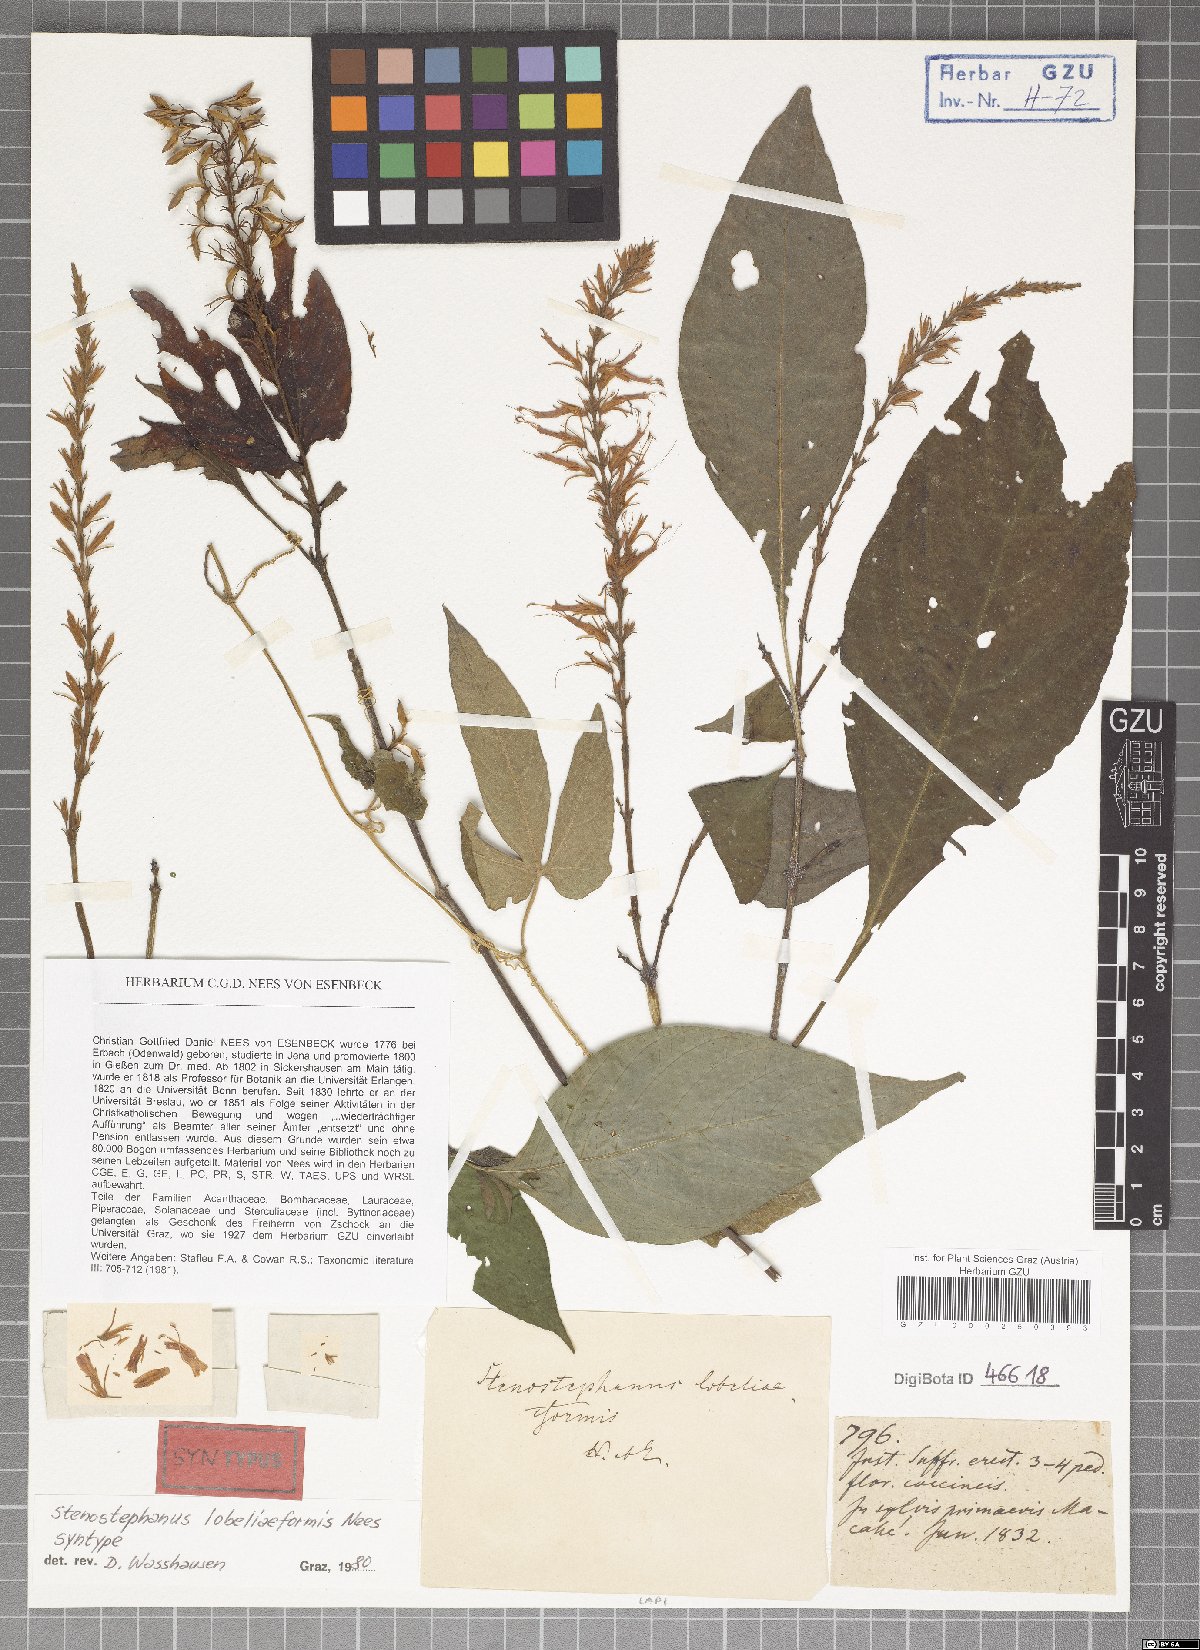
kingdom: Plantae
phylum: Tracheophyta
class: Magnoliopsida
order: Lamiales
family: Acanthaceae
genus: Stenostephanus
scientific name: Stenostephanus lobeliiformis
